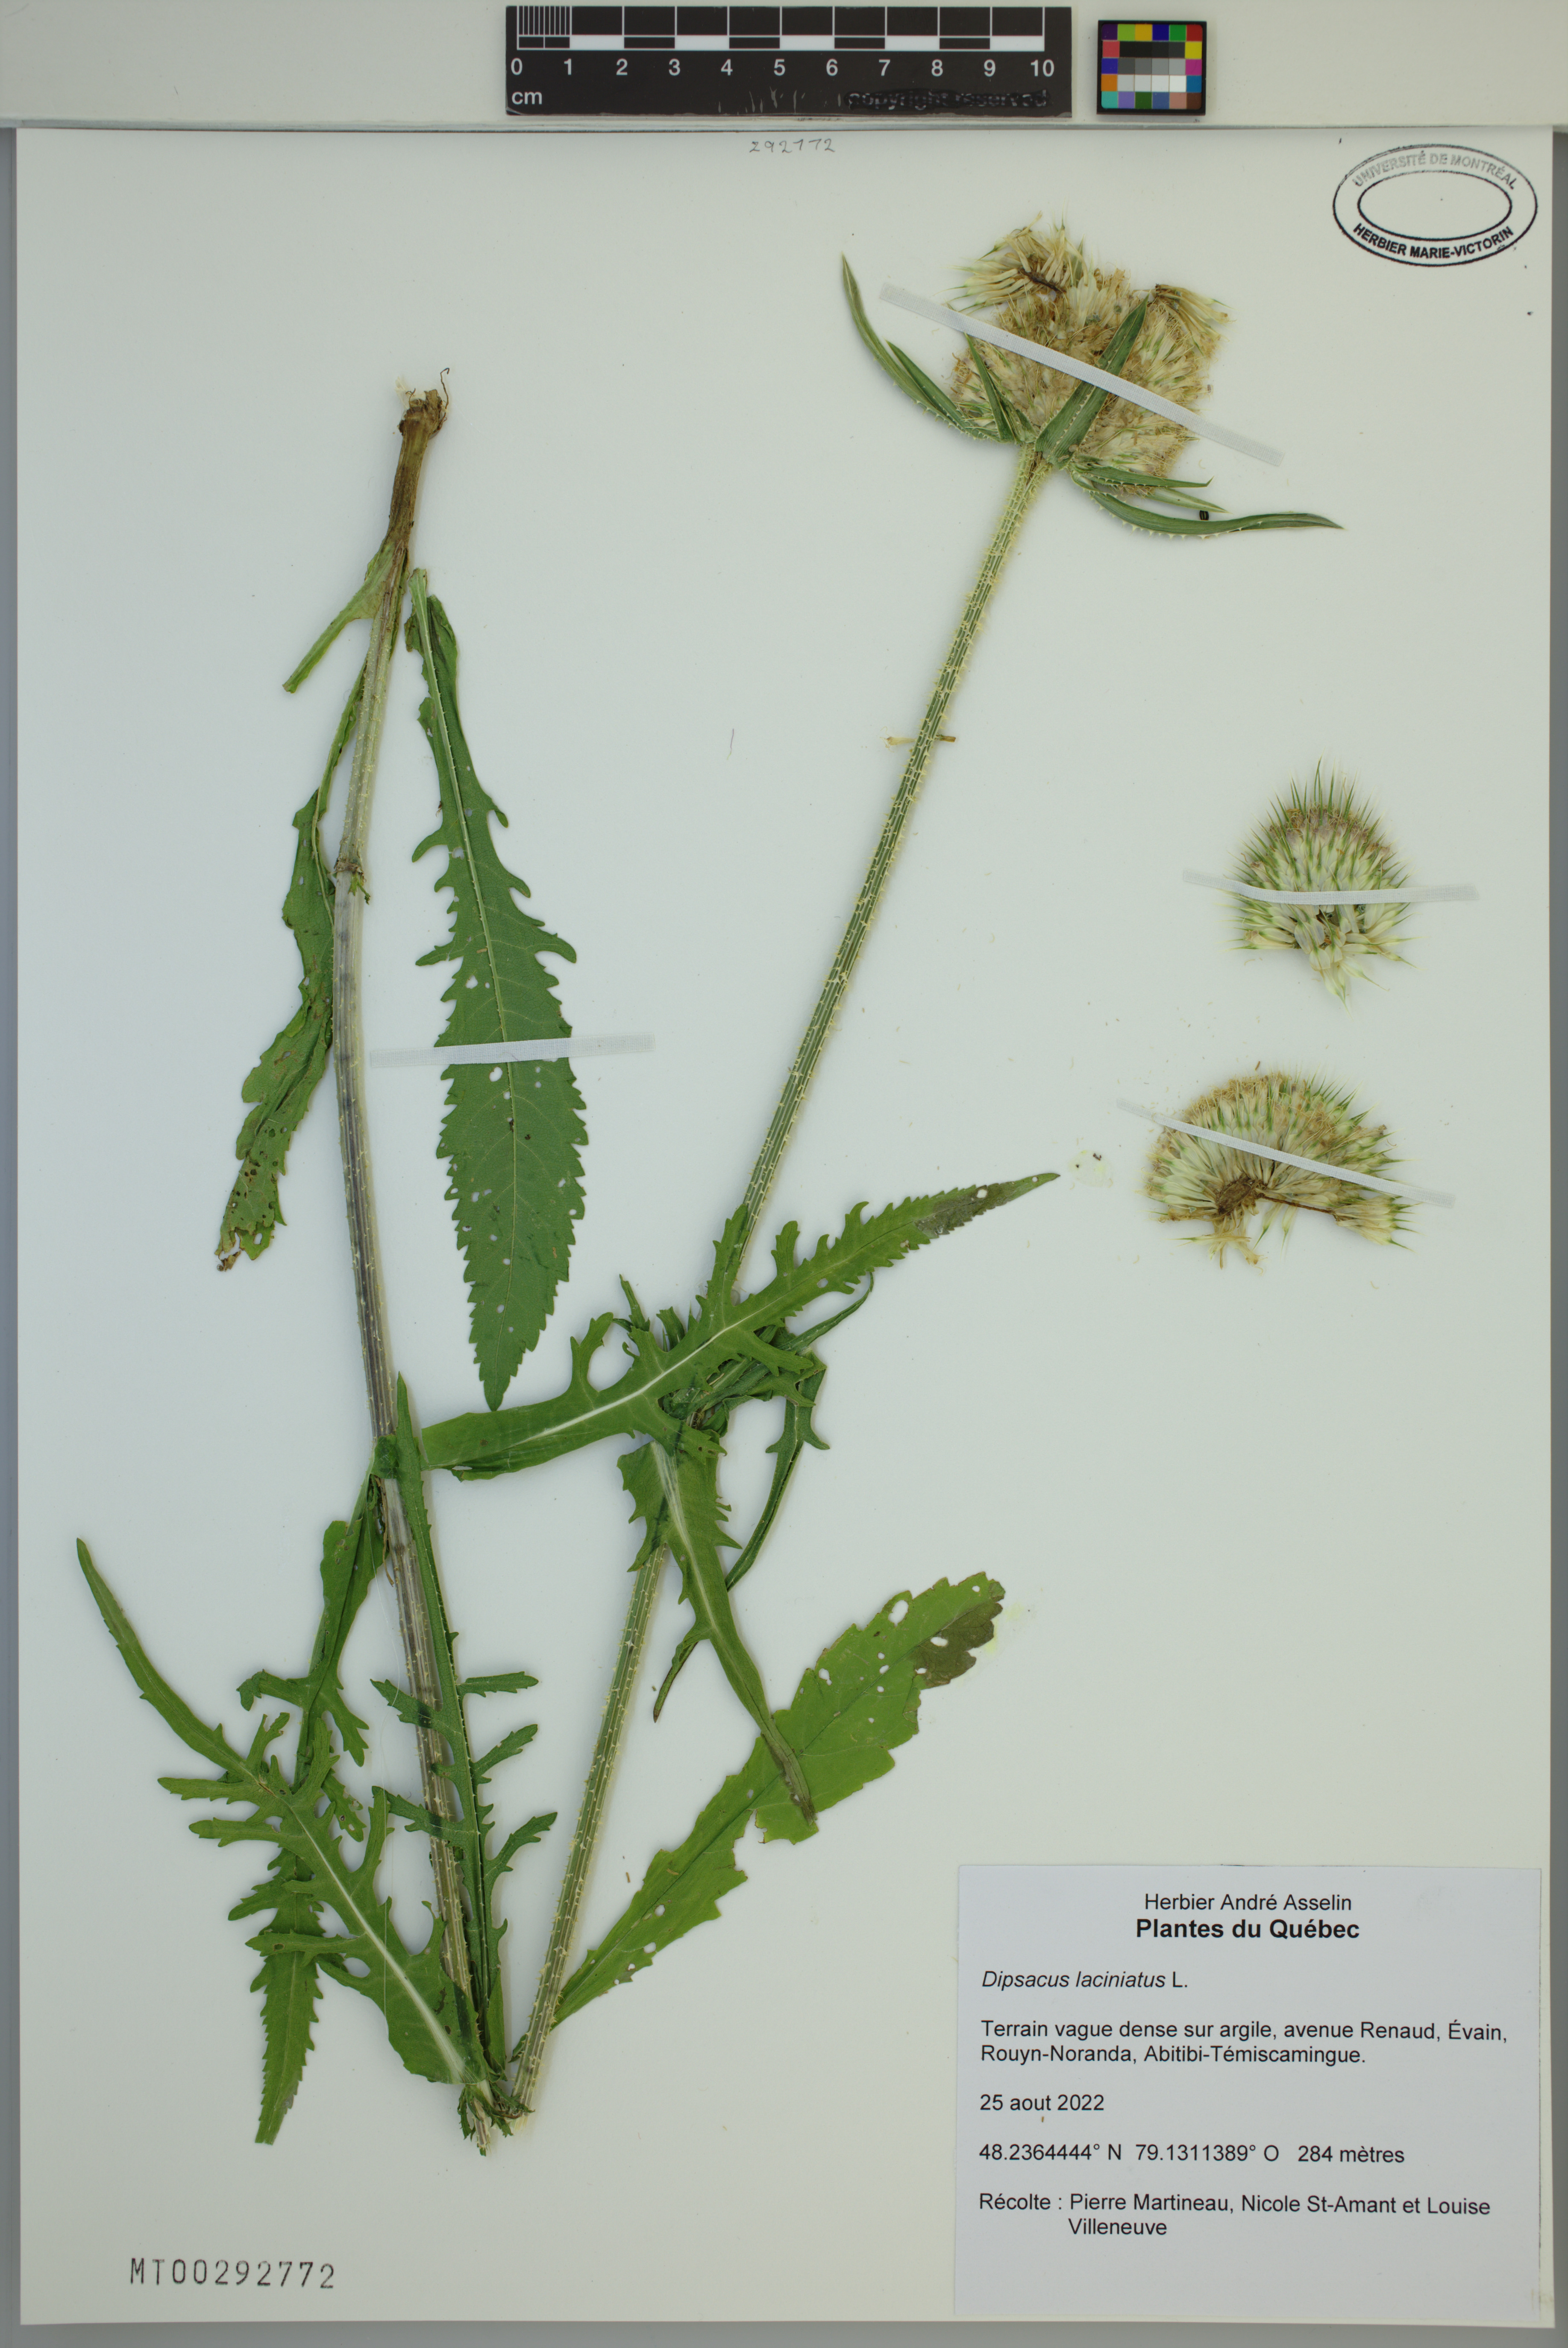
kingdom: Plantae
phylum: Tracheophyta
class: Magnoliopsida
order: Dipsacales
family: Caprifoliaceae
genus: Dipsacus
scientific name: Dipsacus laciniatus
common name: Cut-leaved teasel
